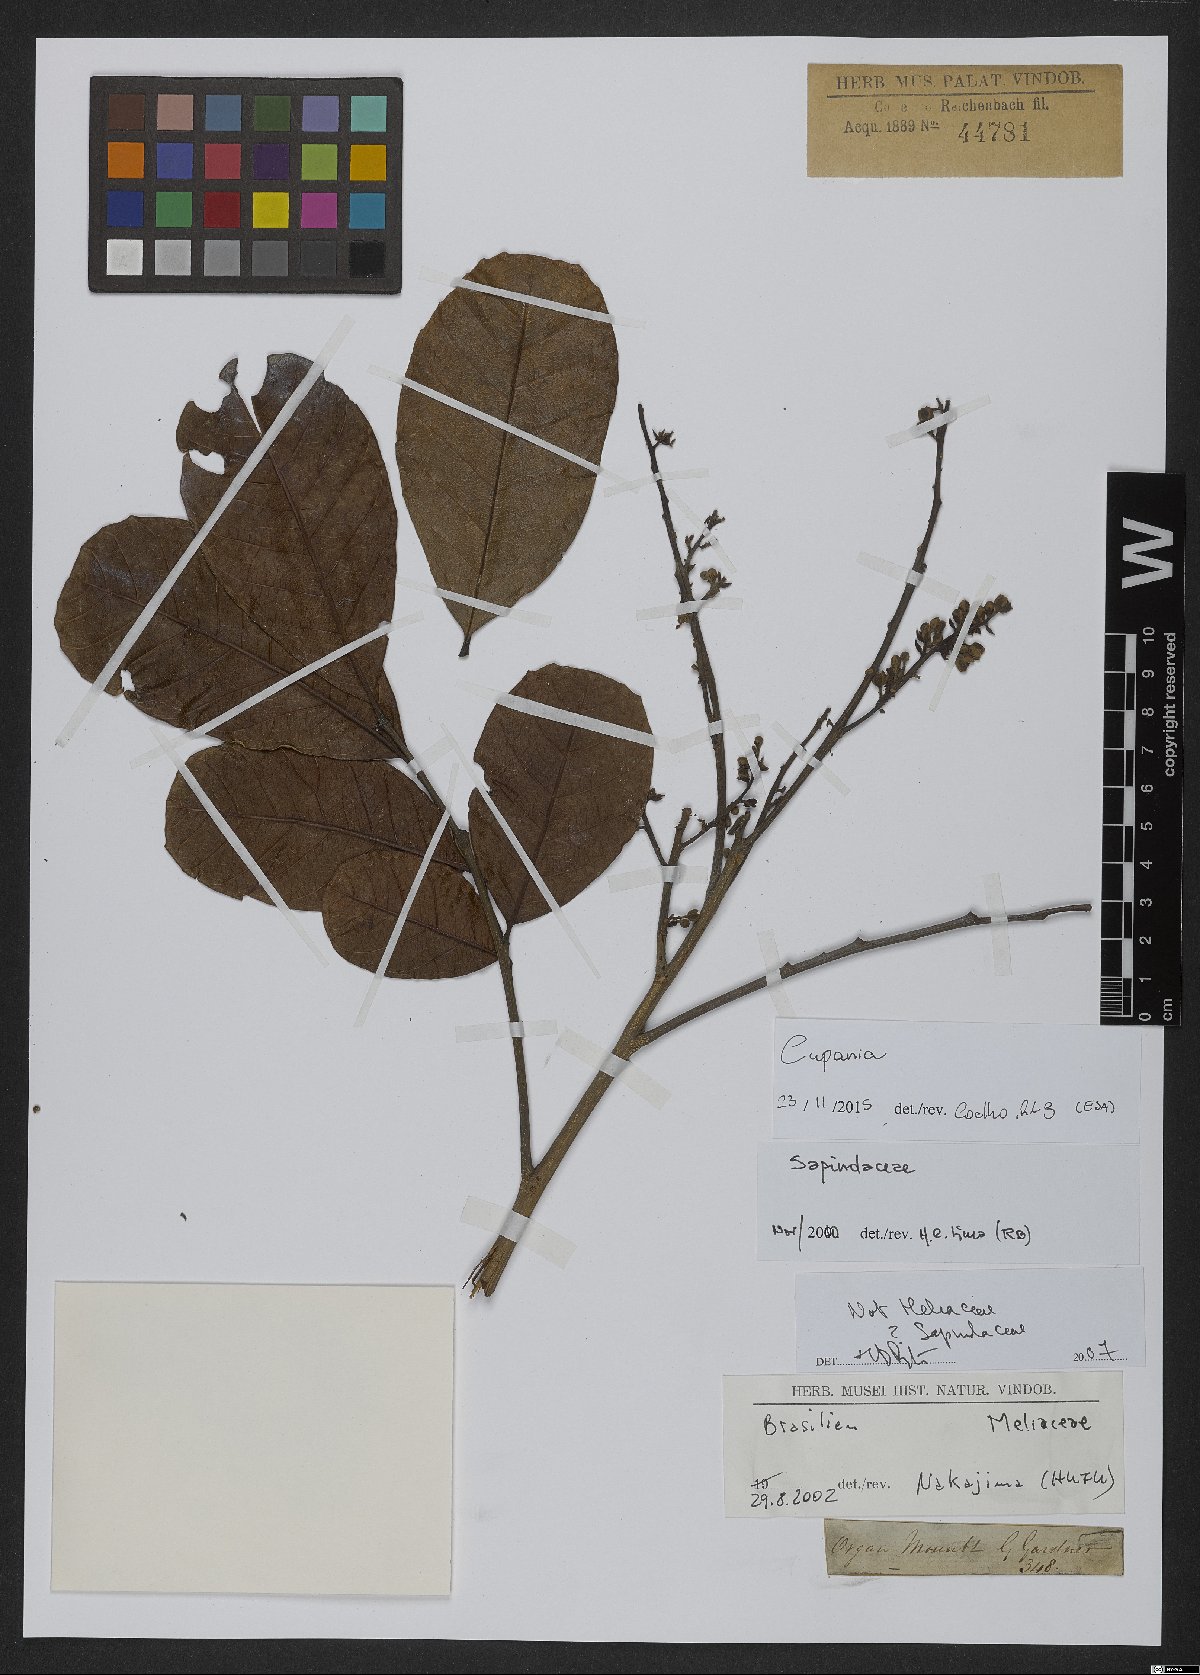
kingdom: Plantae
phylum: Tracheophyta
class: Magnoliopsida
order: Sapindales
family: Sapindaceae
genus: Cupania
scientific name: Cupania
